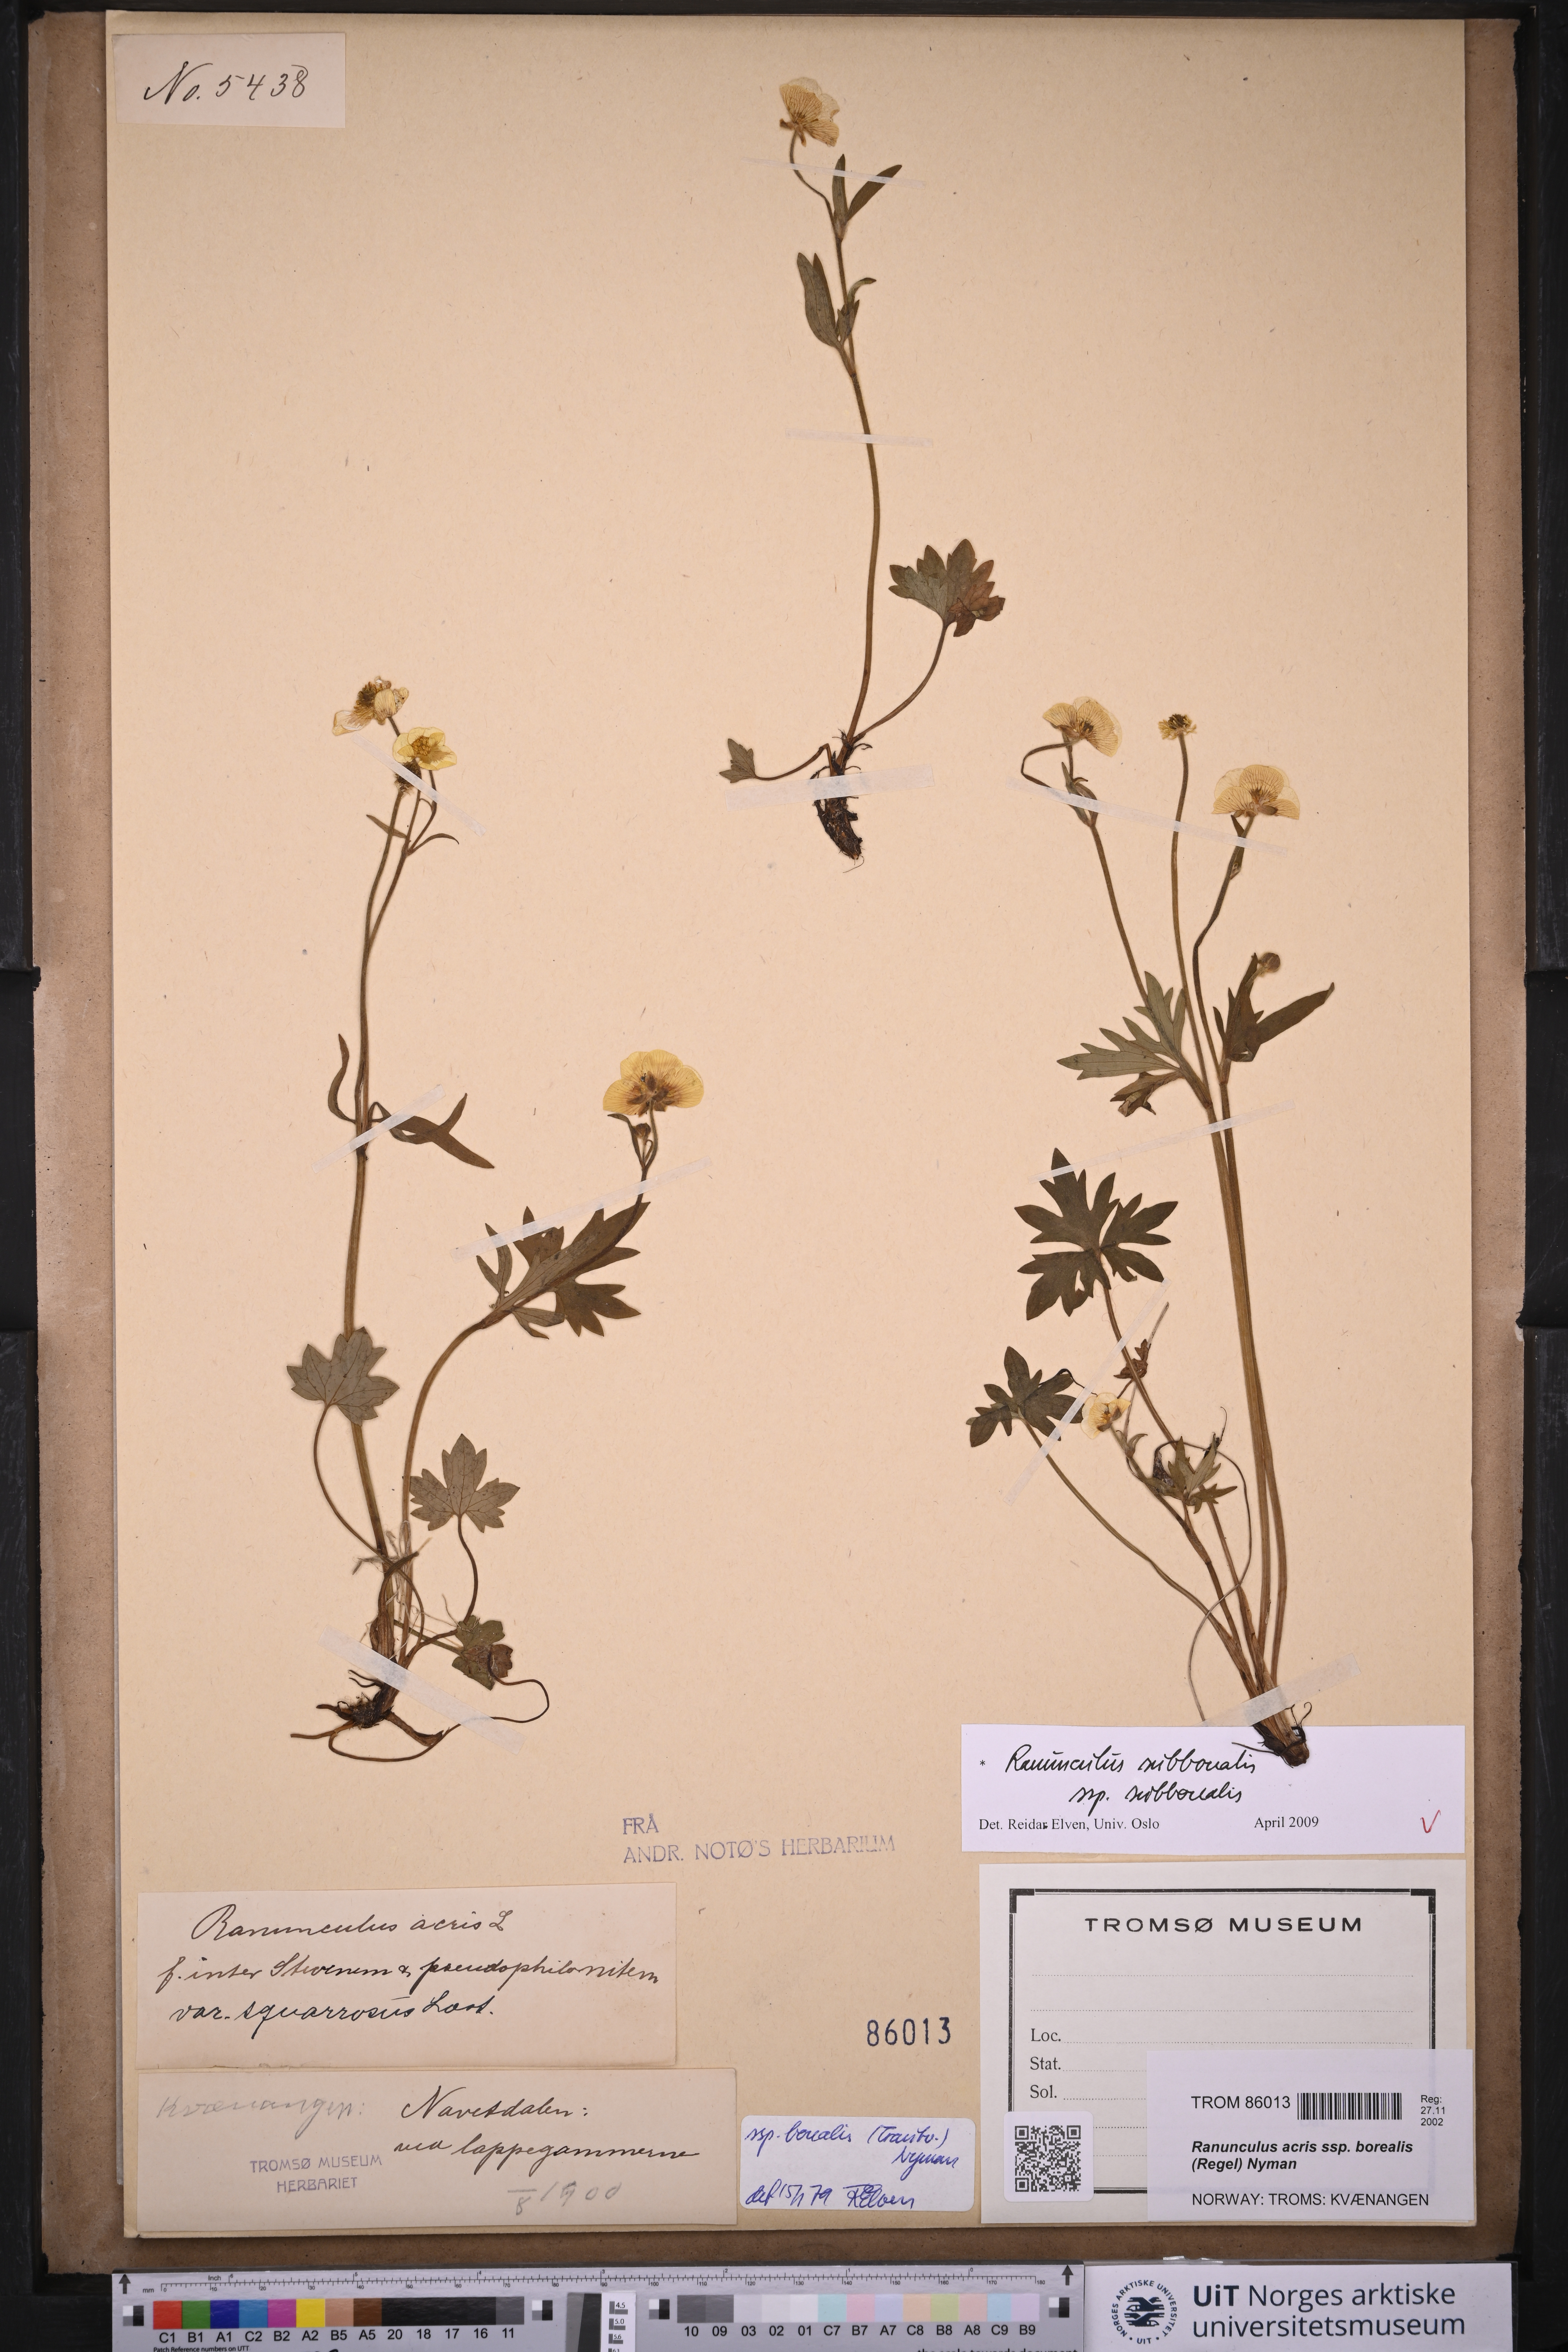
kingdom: Plantae
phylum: Tracheophyta
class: Magnoliopsida
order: Ranunculales
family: Ranunculaceae
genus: Ranunculus
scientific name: Ranunculus propinquus
